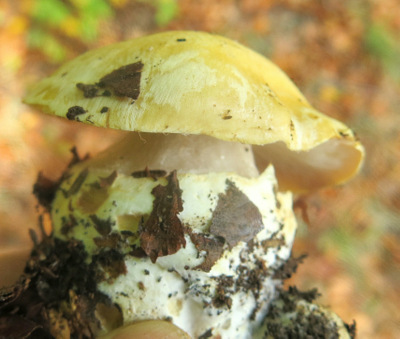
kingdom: Fungi
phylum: Basidiomycota
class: Agaricomycetes
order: Agaricales
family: Cortinariaceae
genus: Phlegmacium
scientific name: Phlegmacium xantho-ochraceum
